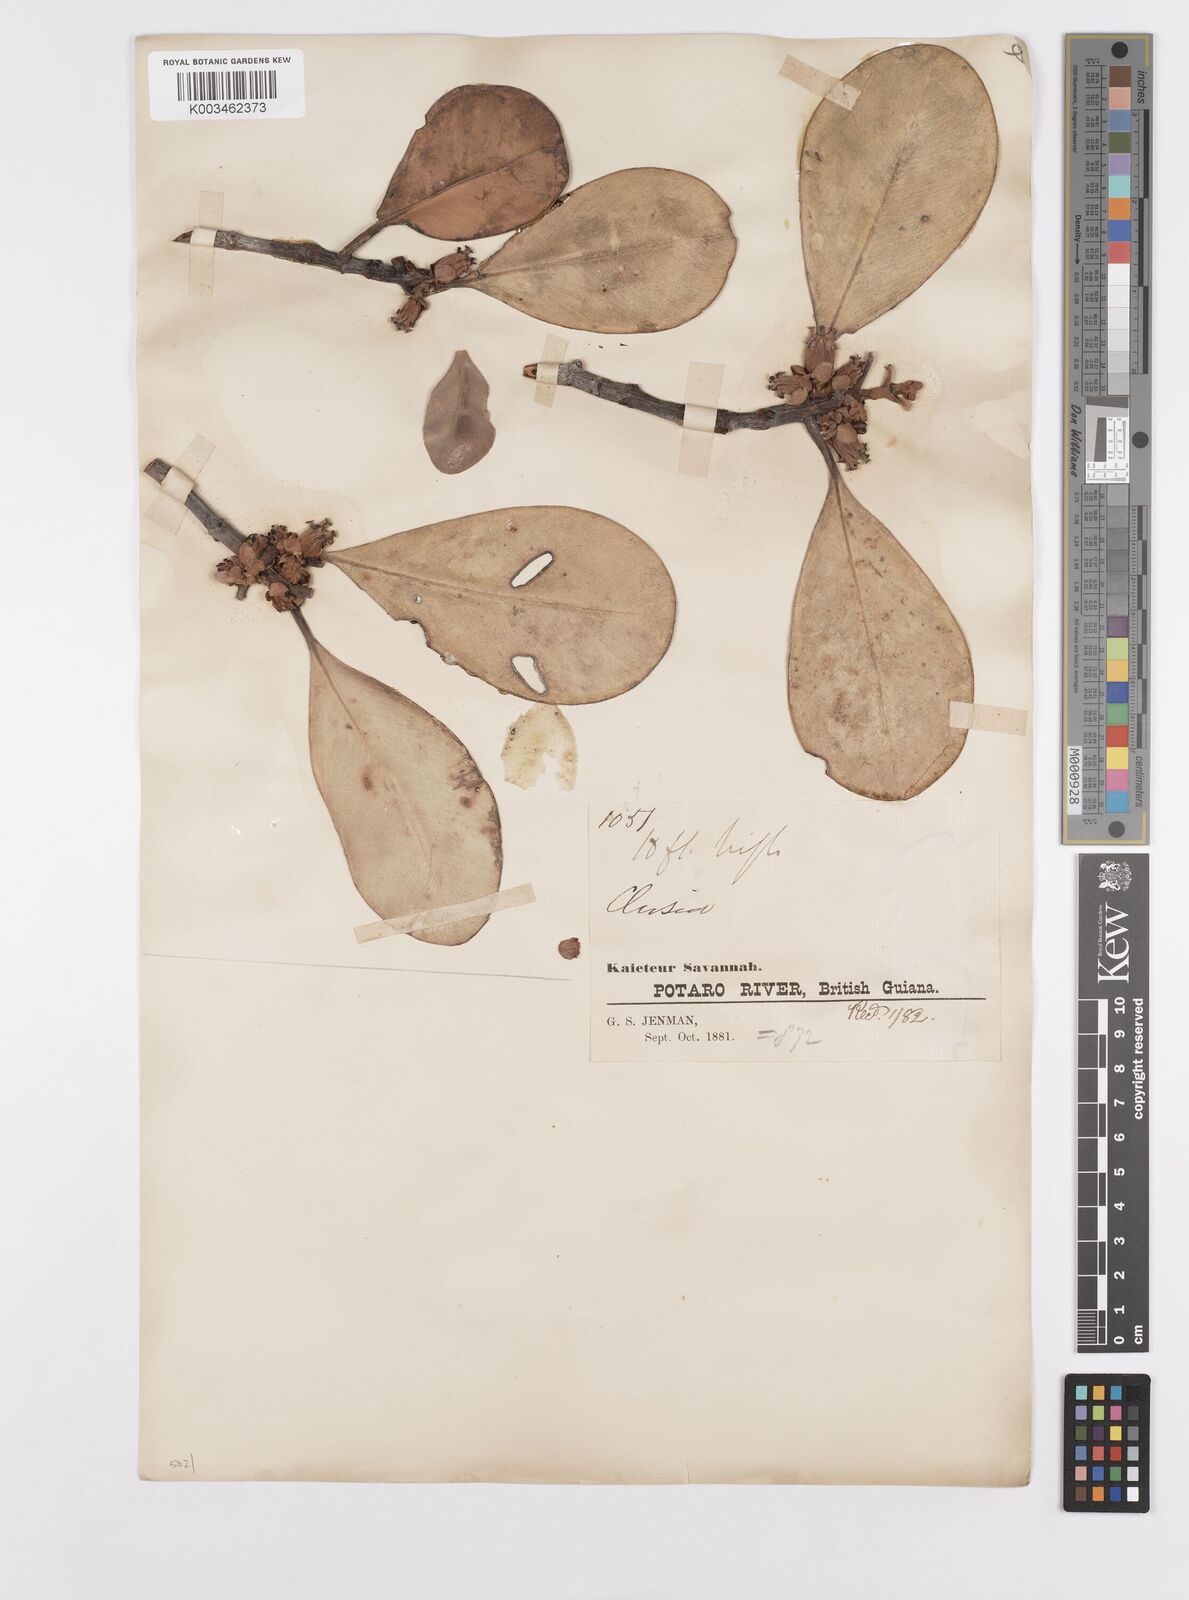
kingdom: Plantae
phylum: Tracheophyta
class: Magnoliopsida
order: Malpighiales
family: Clusiaceae
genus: Clusia
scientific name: Clusia
